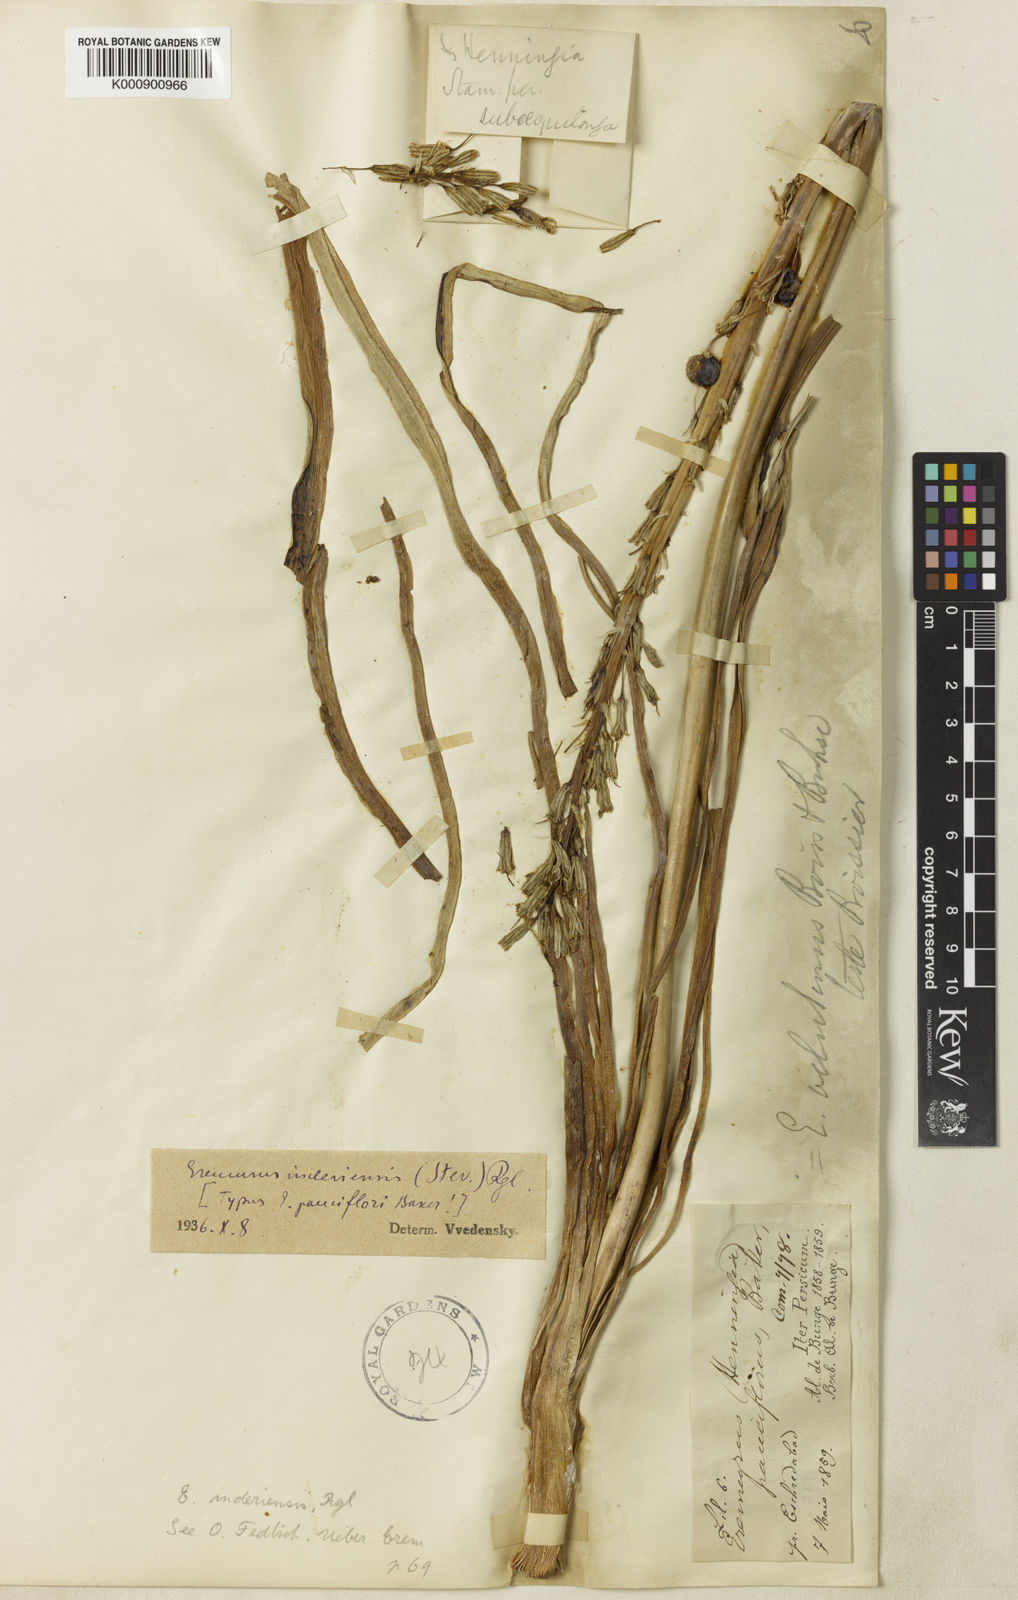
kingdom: Plantae
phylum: Tracheophyta
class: Liliopsida
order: Asparagales
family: Asphodelaceae
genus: Eremurus
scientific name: Eremurus inderiensis
